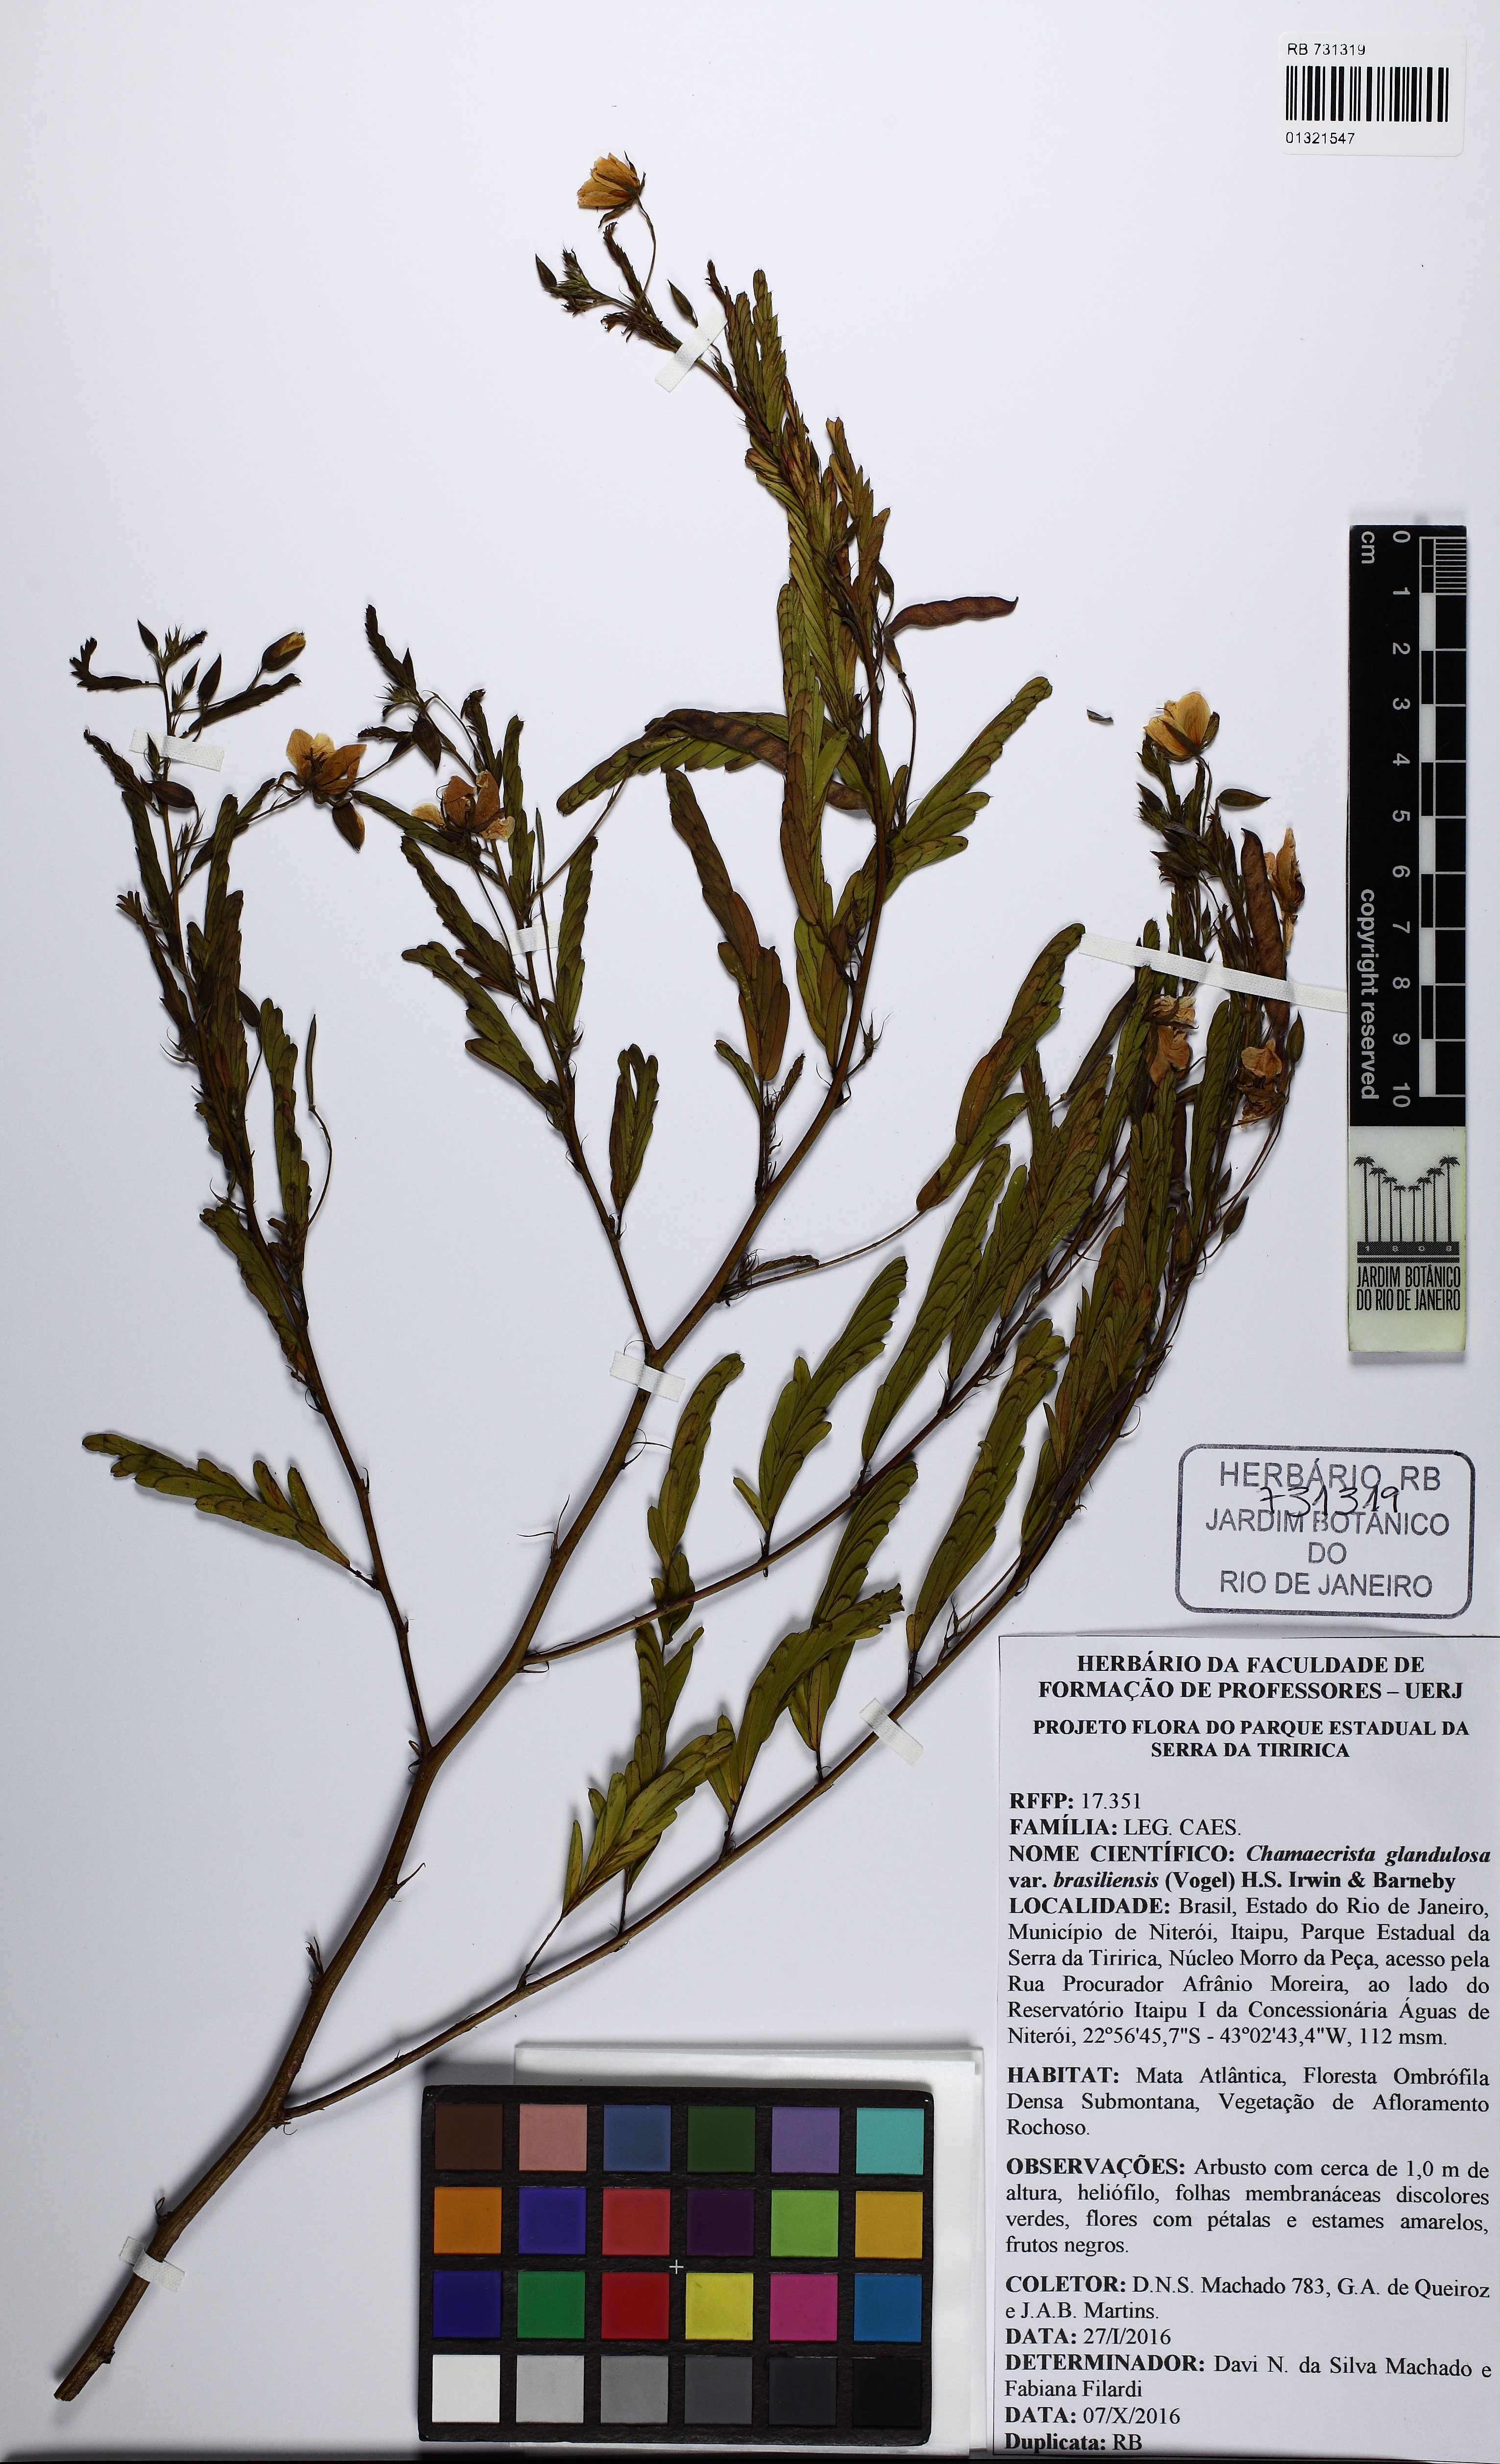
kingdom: Plantae
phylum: Tracheophyta
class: Magnoliopsida
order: Fabales
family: Fabaceae
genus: Chamaecrista
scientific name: Chamaecrista glandulosa
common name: Wild peas
